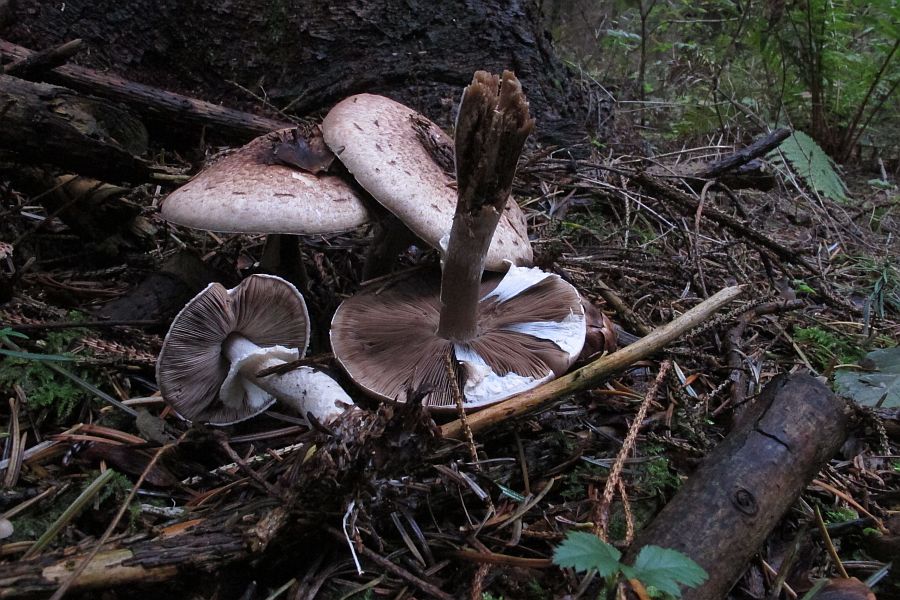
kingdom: Fungi
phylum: Basidiomycota
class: Agaricomycetes
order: Agaricales
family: Agaricaceae
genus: Agaricus
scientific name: Agaricus impudicus
